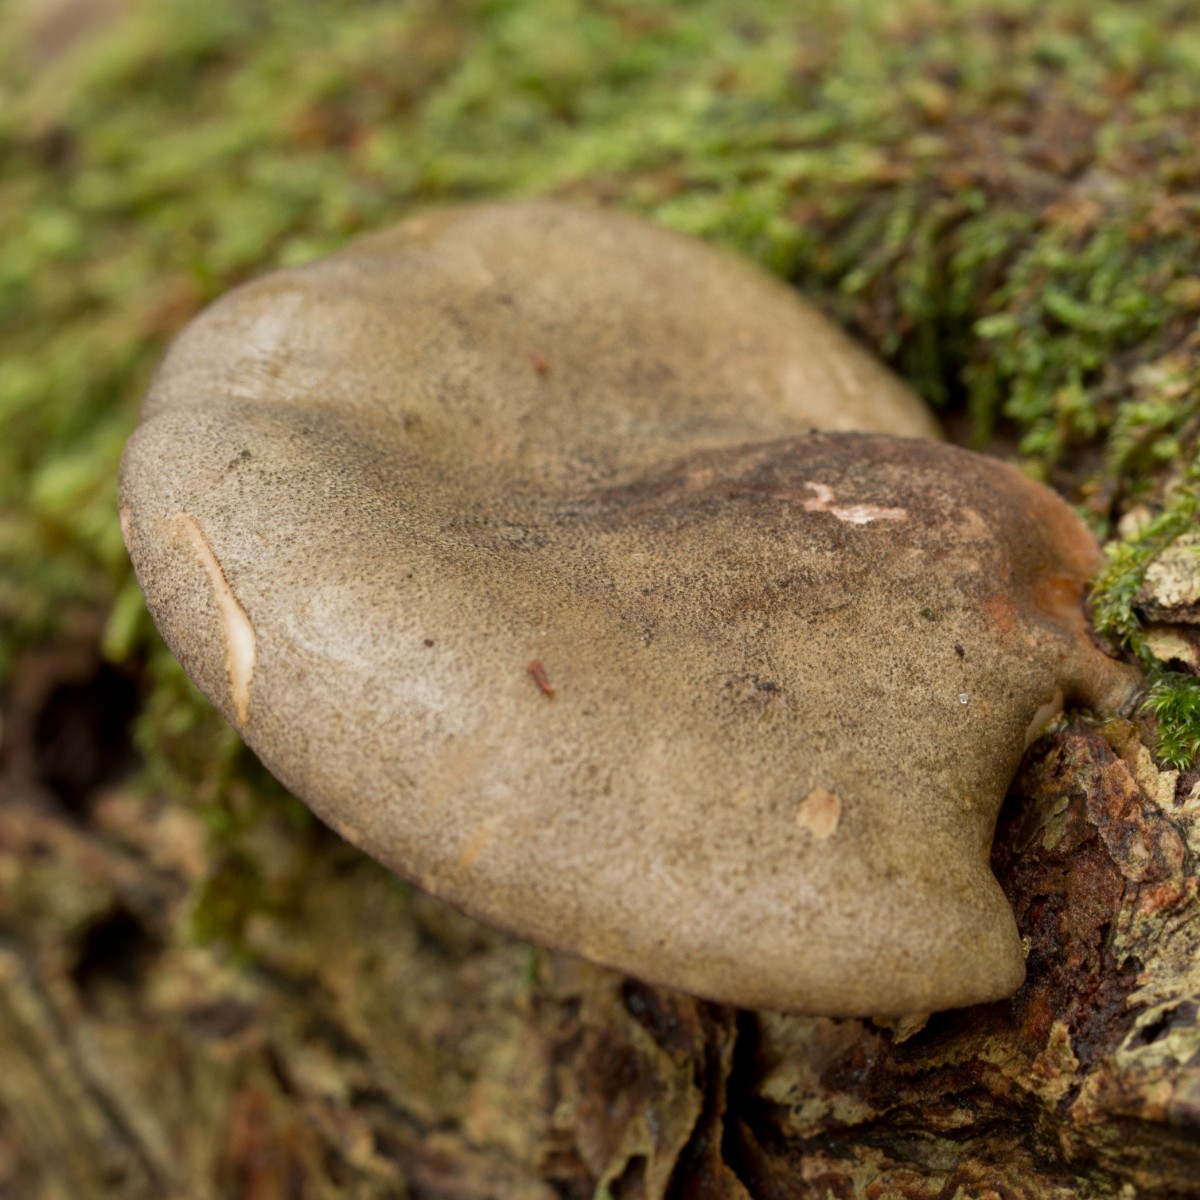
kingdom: Fungi
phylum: Basidiomycota
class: Agaricomycetes
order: Agaricales
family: Sarcomyxaceae
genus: Sarcomyxa
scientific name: Sarcomyxa serotina
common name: gummihat
